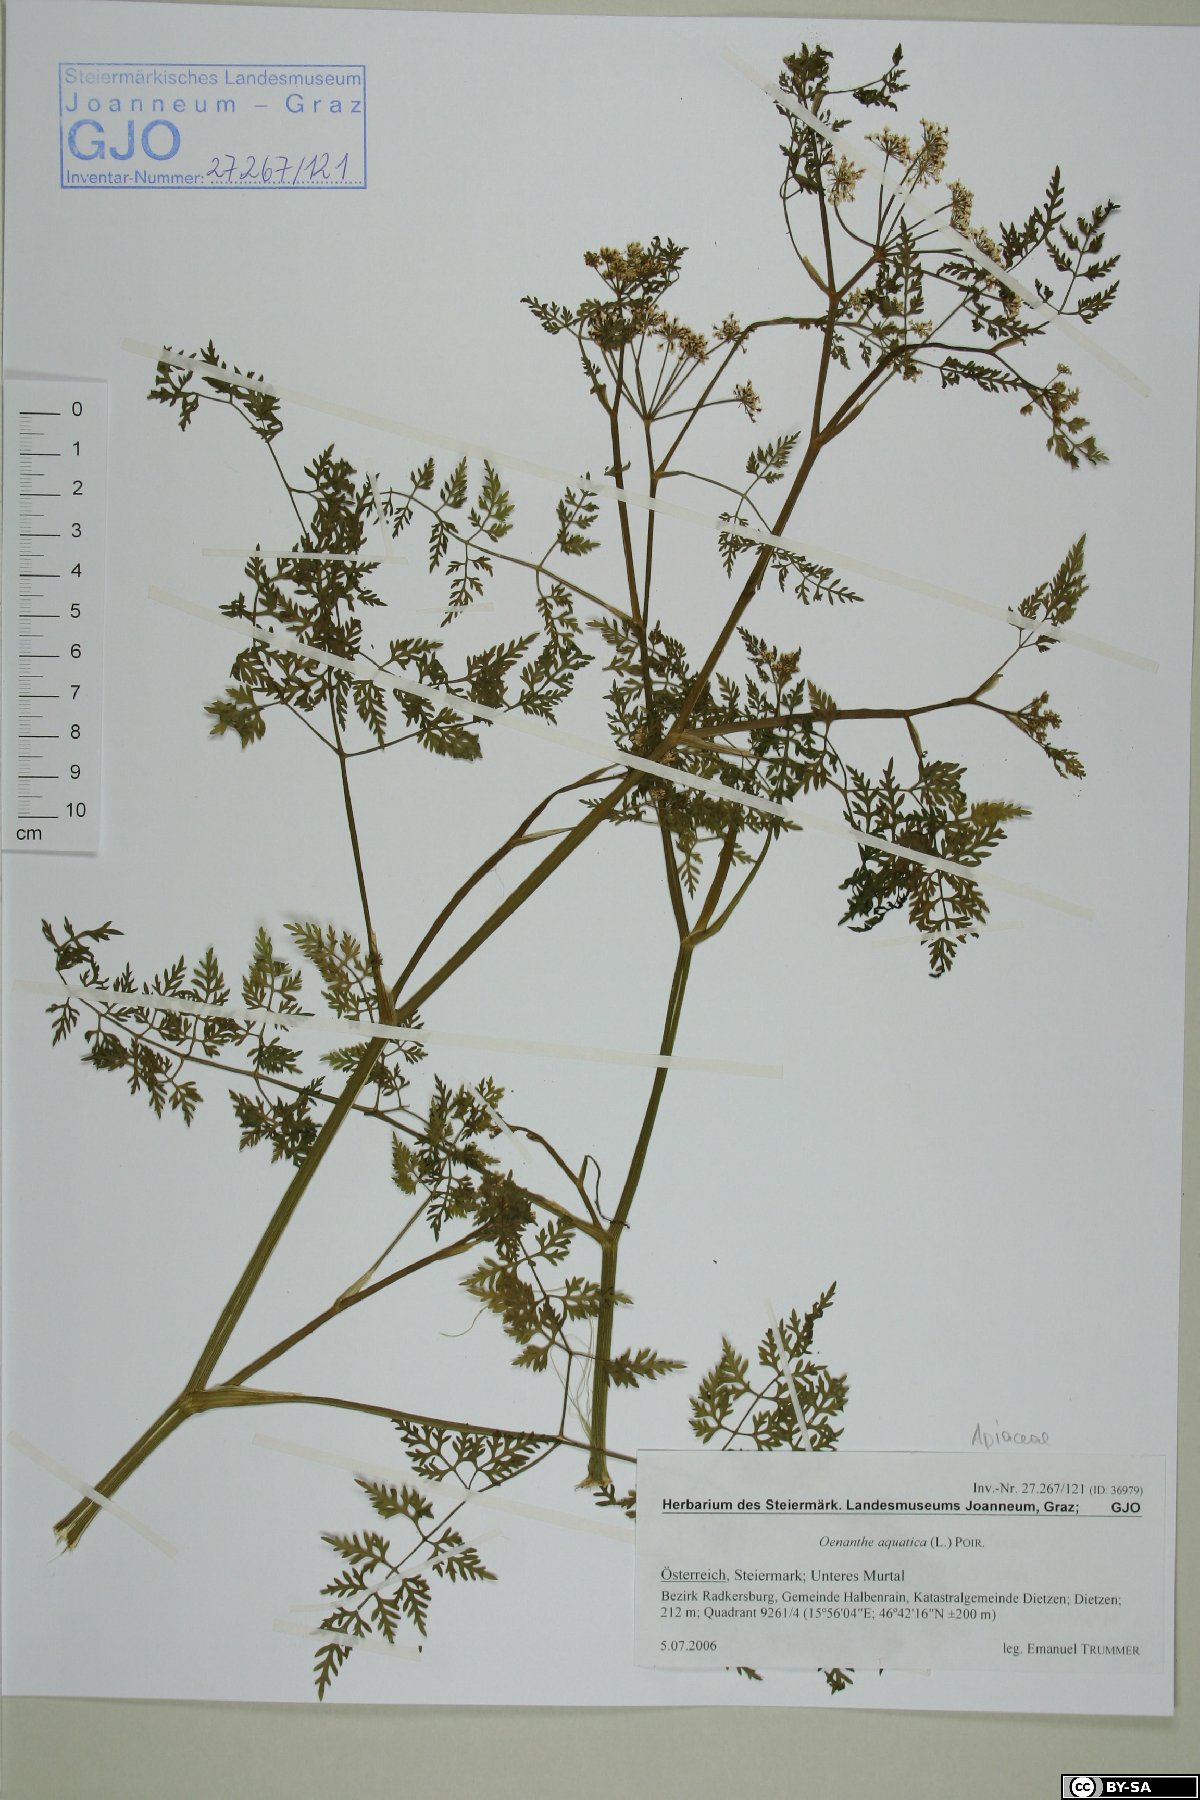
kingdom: Plantae
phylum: Tracheophyta
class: Magnoliopsida
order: Apiales
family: Apiaceae
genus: Oenanthe
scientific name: Oenanthe aquatica
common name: Fine-leaved water-dropwort
